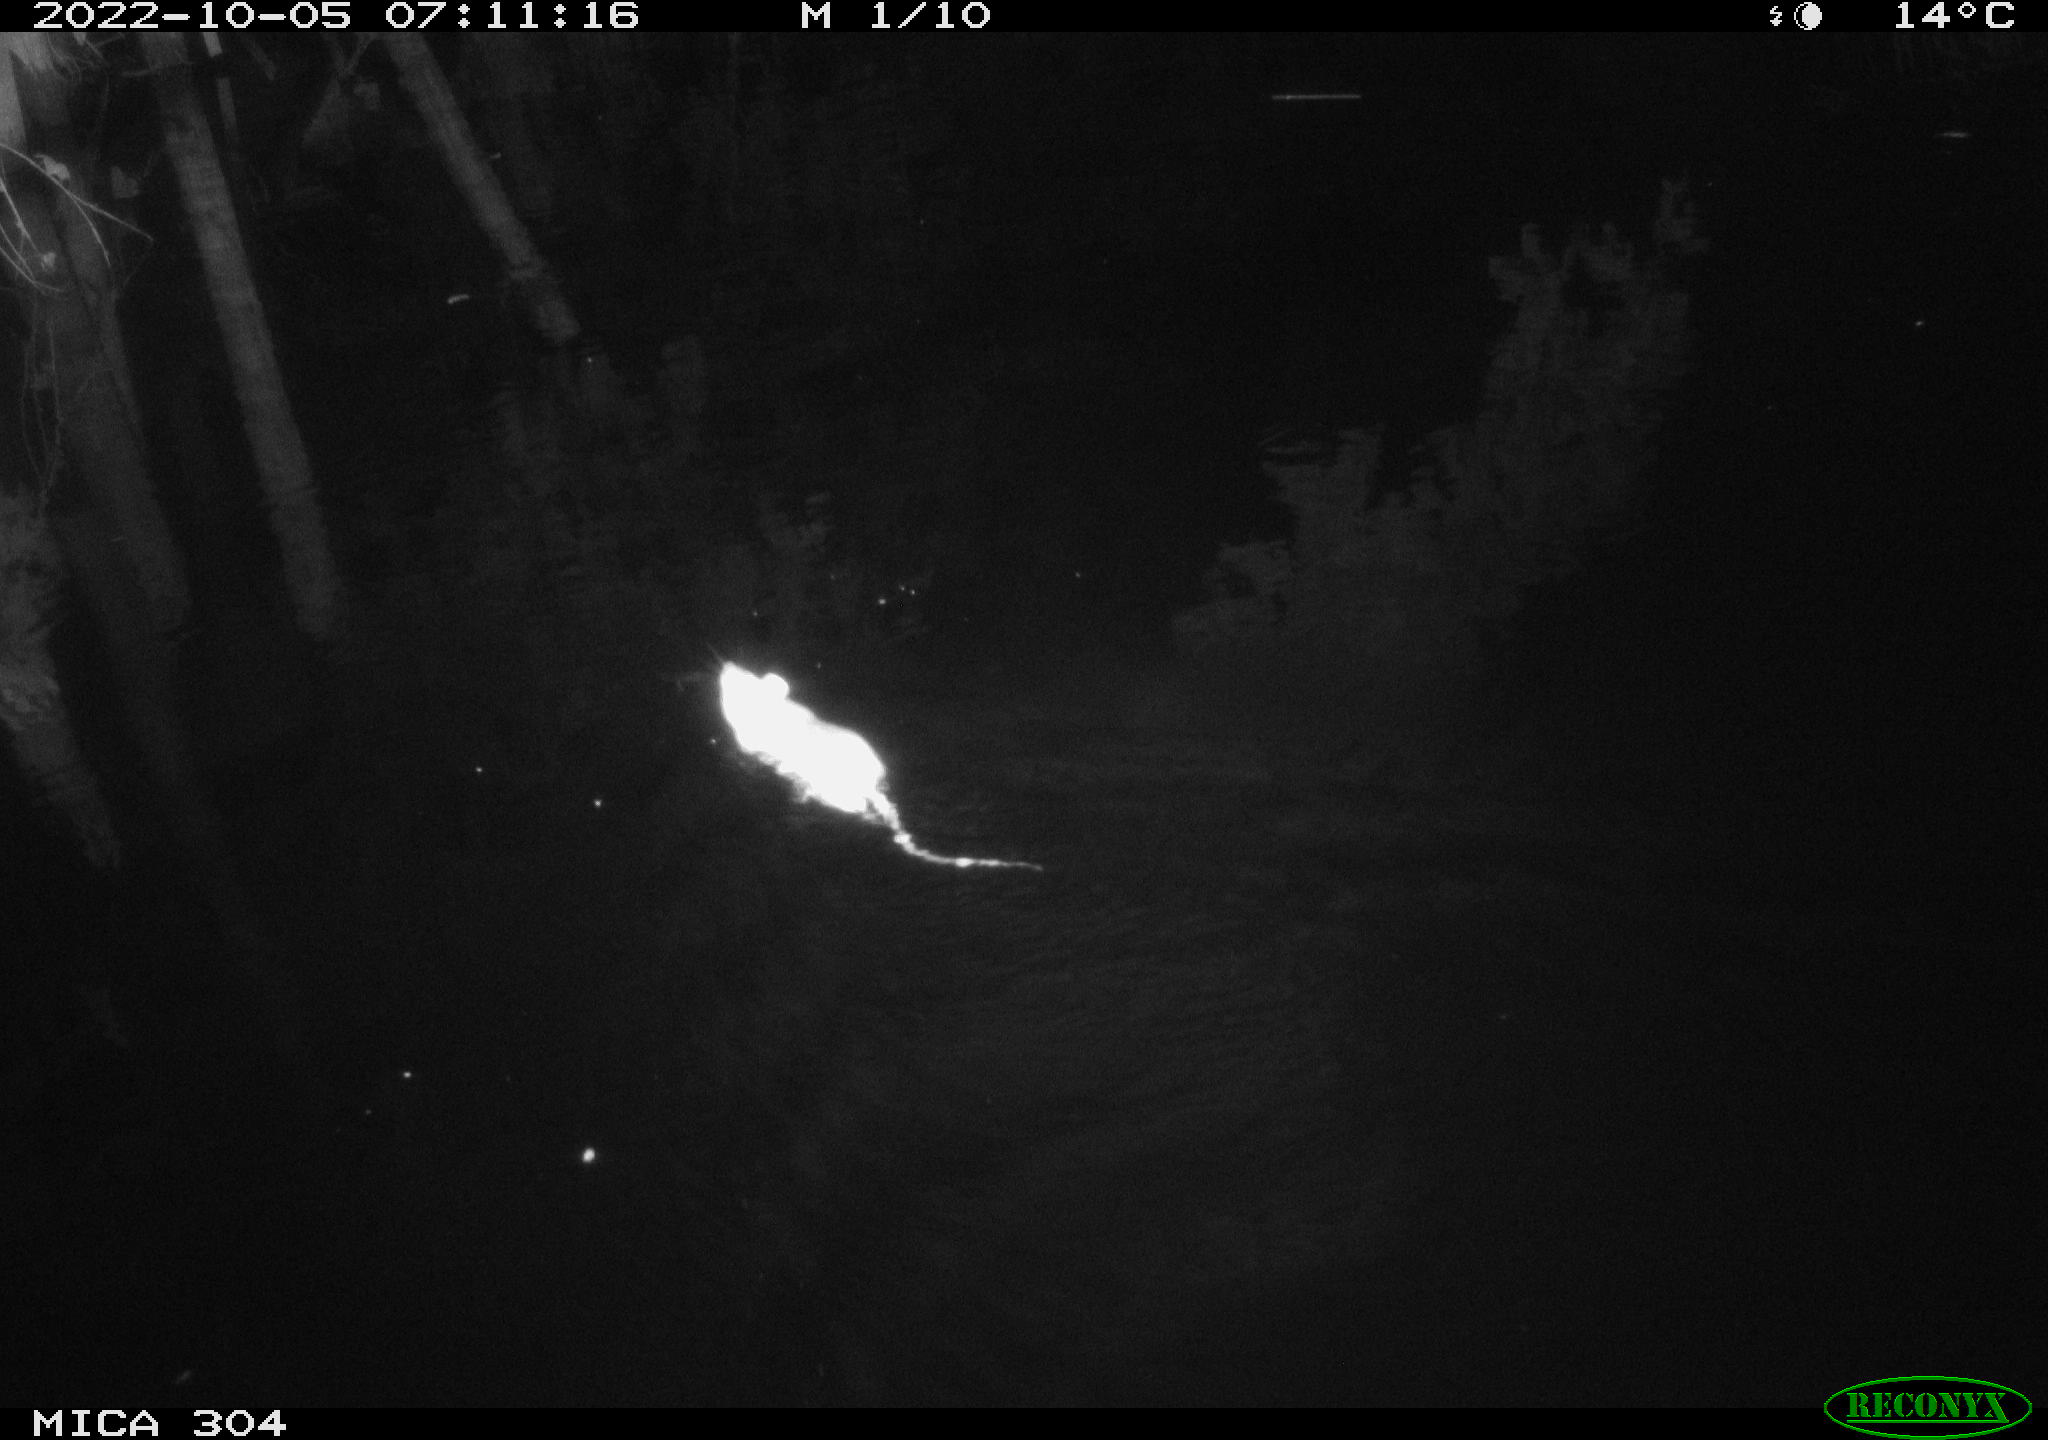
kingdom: Animalia
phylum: Chordata
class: Mammalia
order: Rodentia
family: Muridae
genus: Rattus
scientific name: Rattus norvegicus
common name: Brown rat
